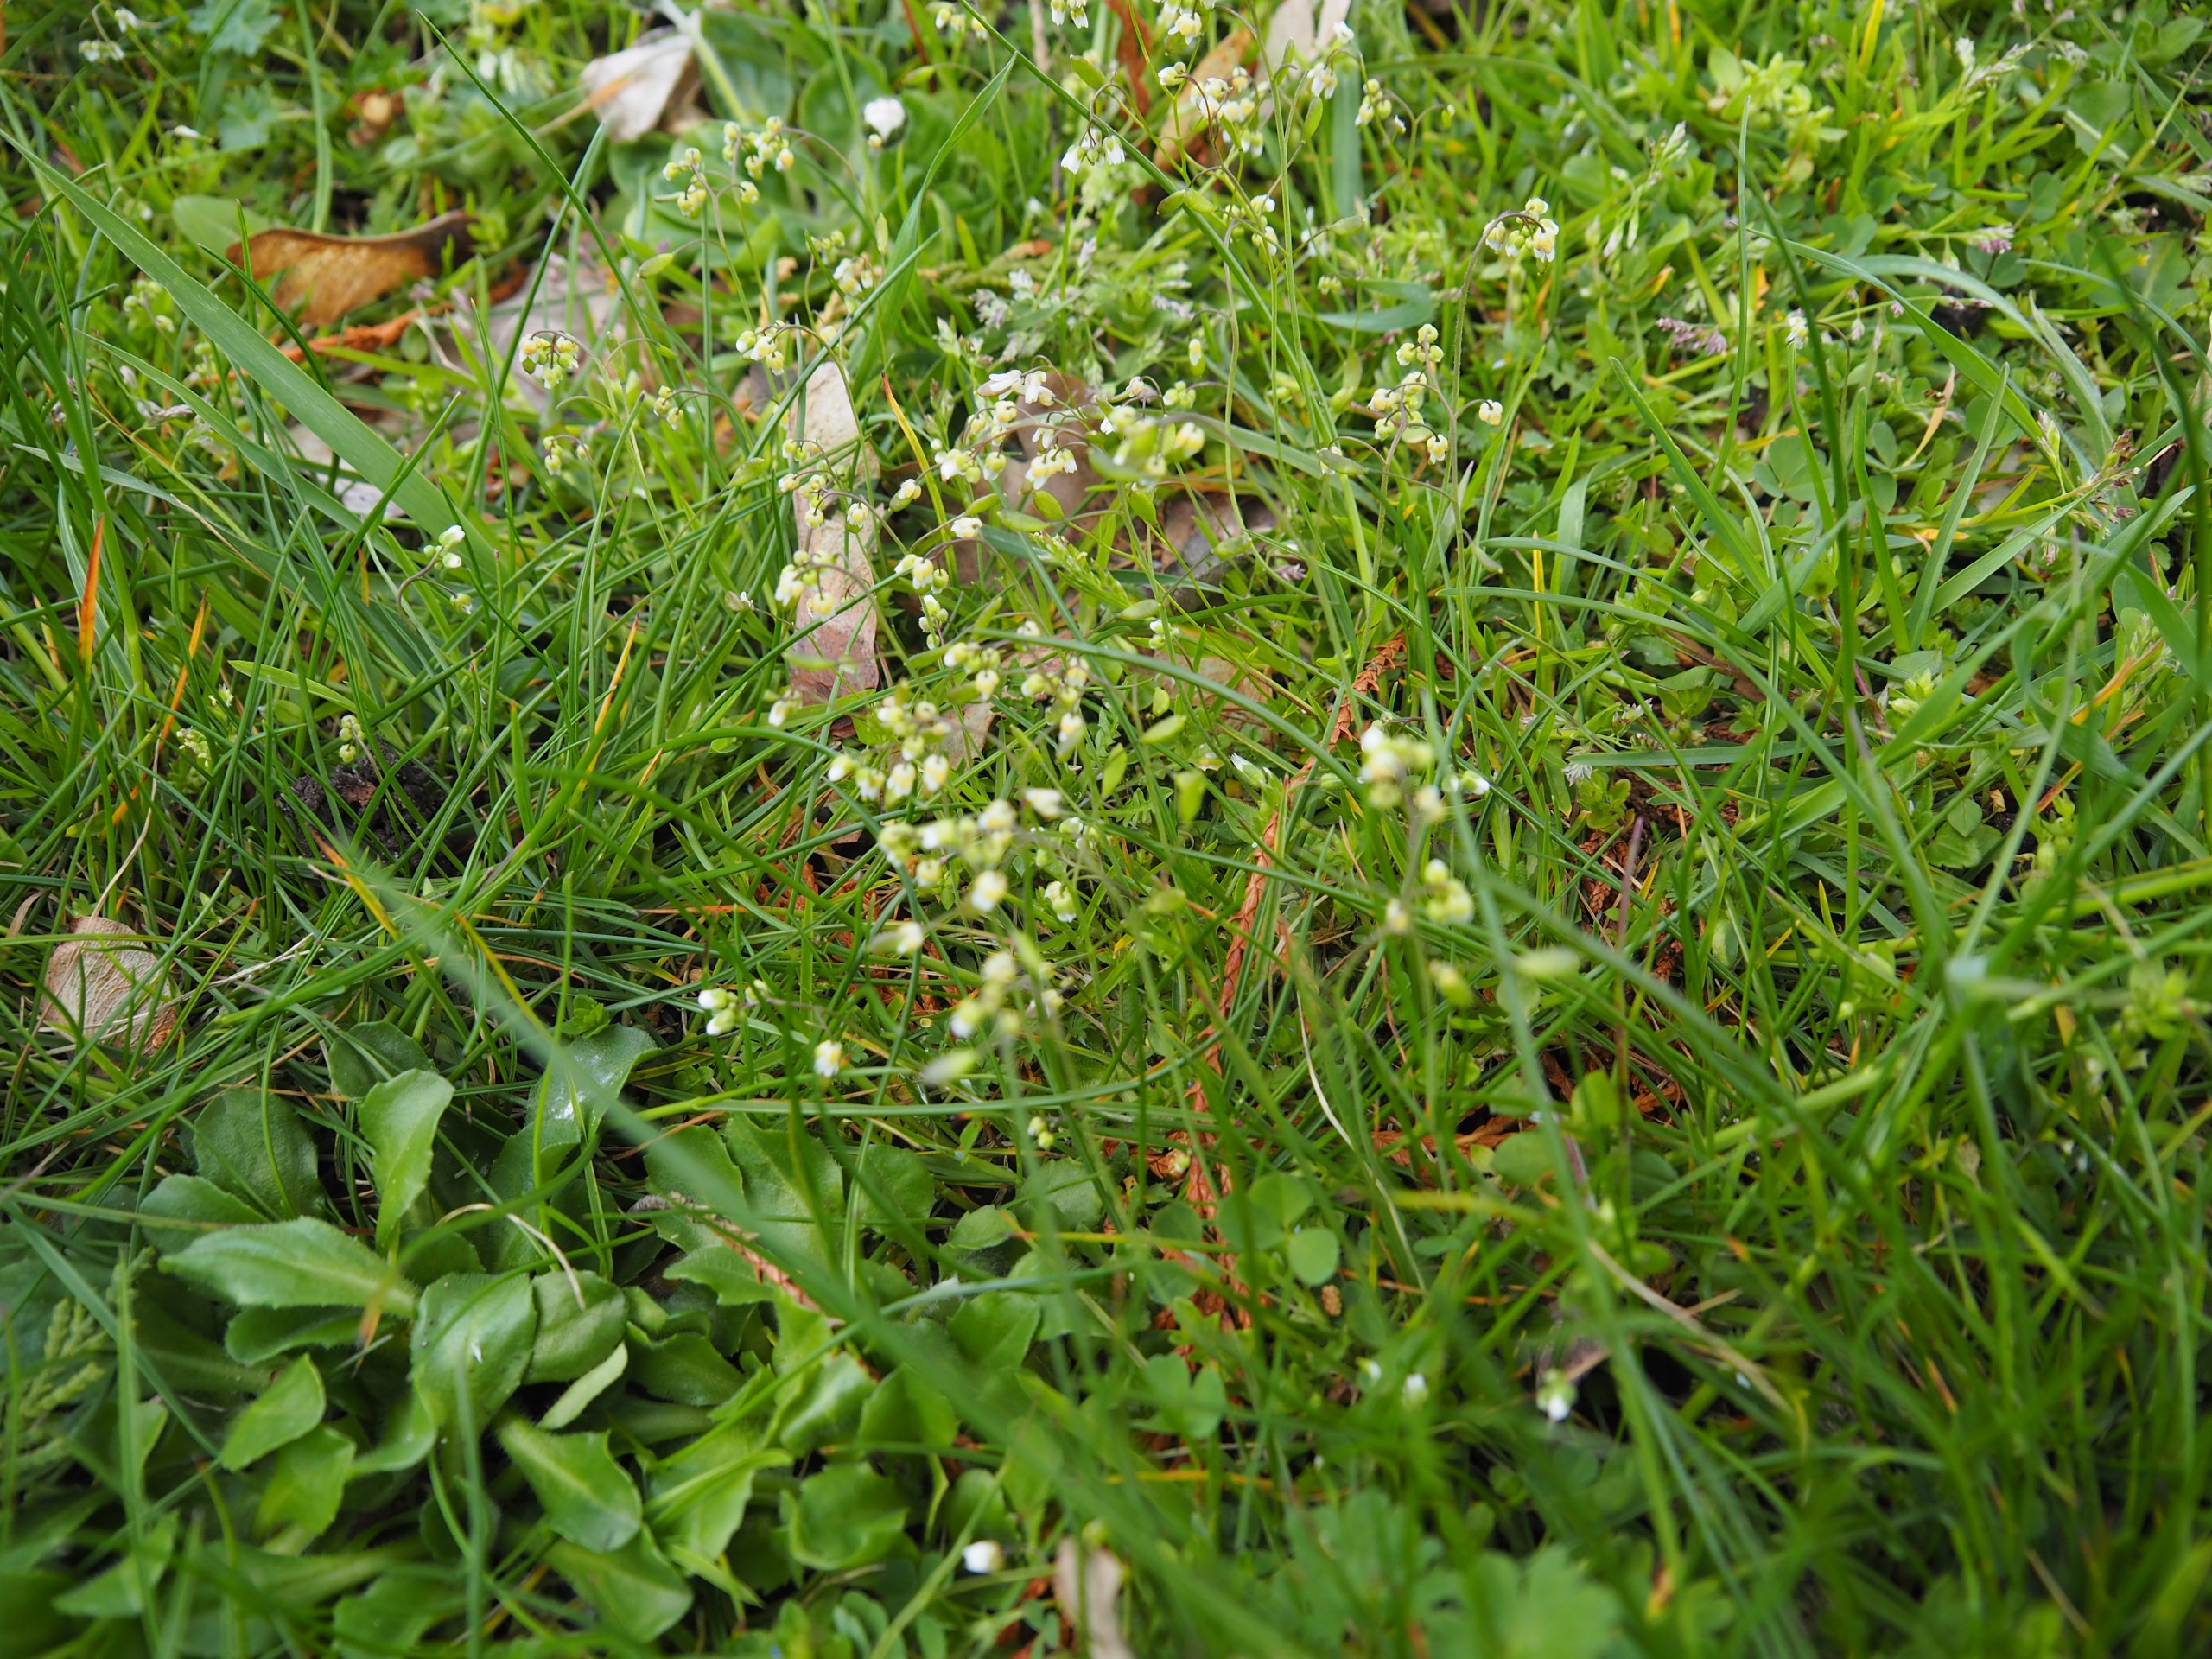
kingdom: Plantae
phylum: Tracheophyta
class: Magnoliopsida
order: Brassicales
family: Brassicaceae
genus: Draba
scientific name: Draba verna
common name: Vår-gæslingeblomst
